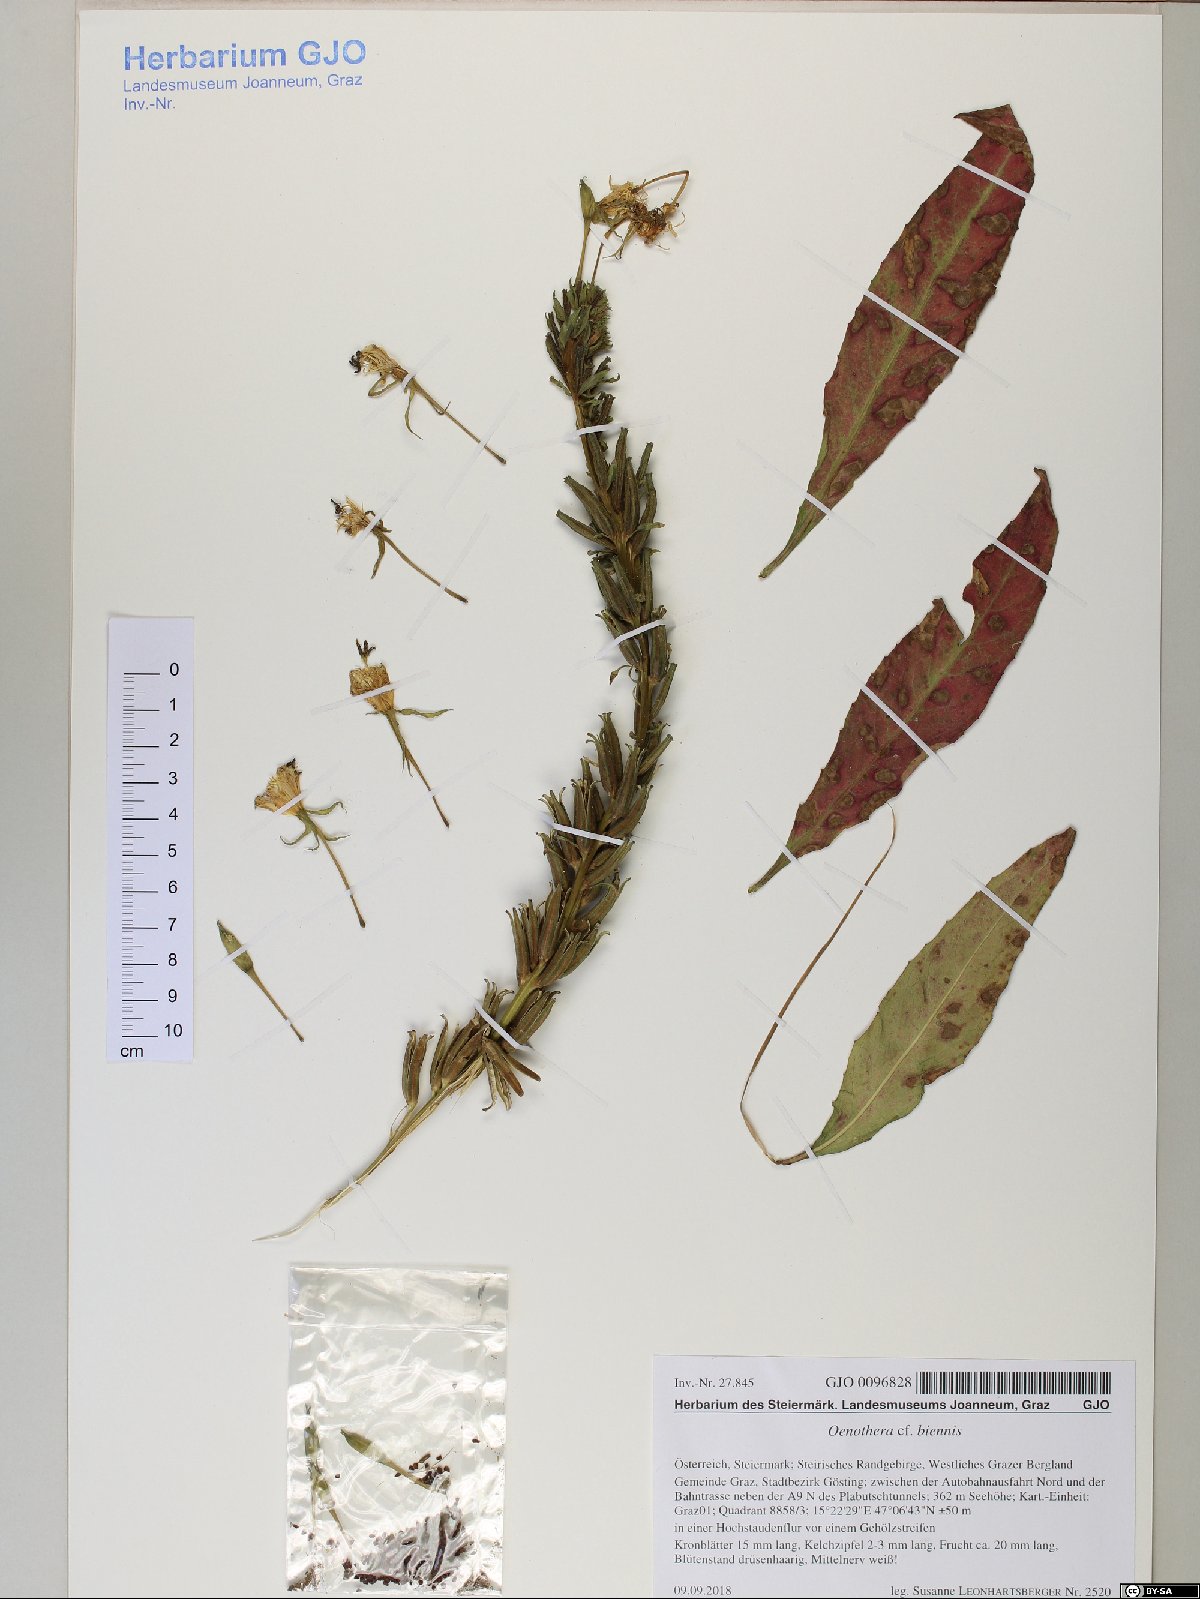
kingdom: Plantae
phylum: Tracheophyta
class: Magnoliopsida
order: Myrtales
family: Onagraceae
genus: Oenothera
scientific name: Oenothera biennis
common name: Common evening-primrose
